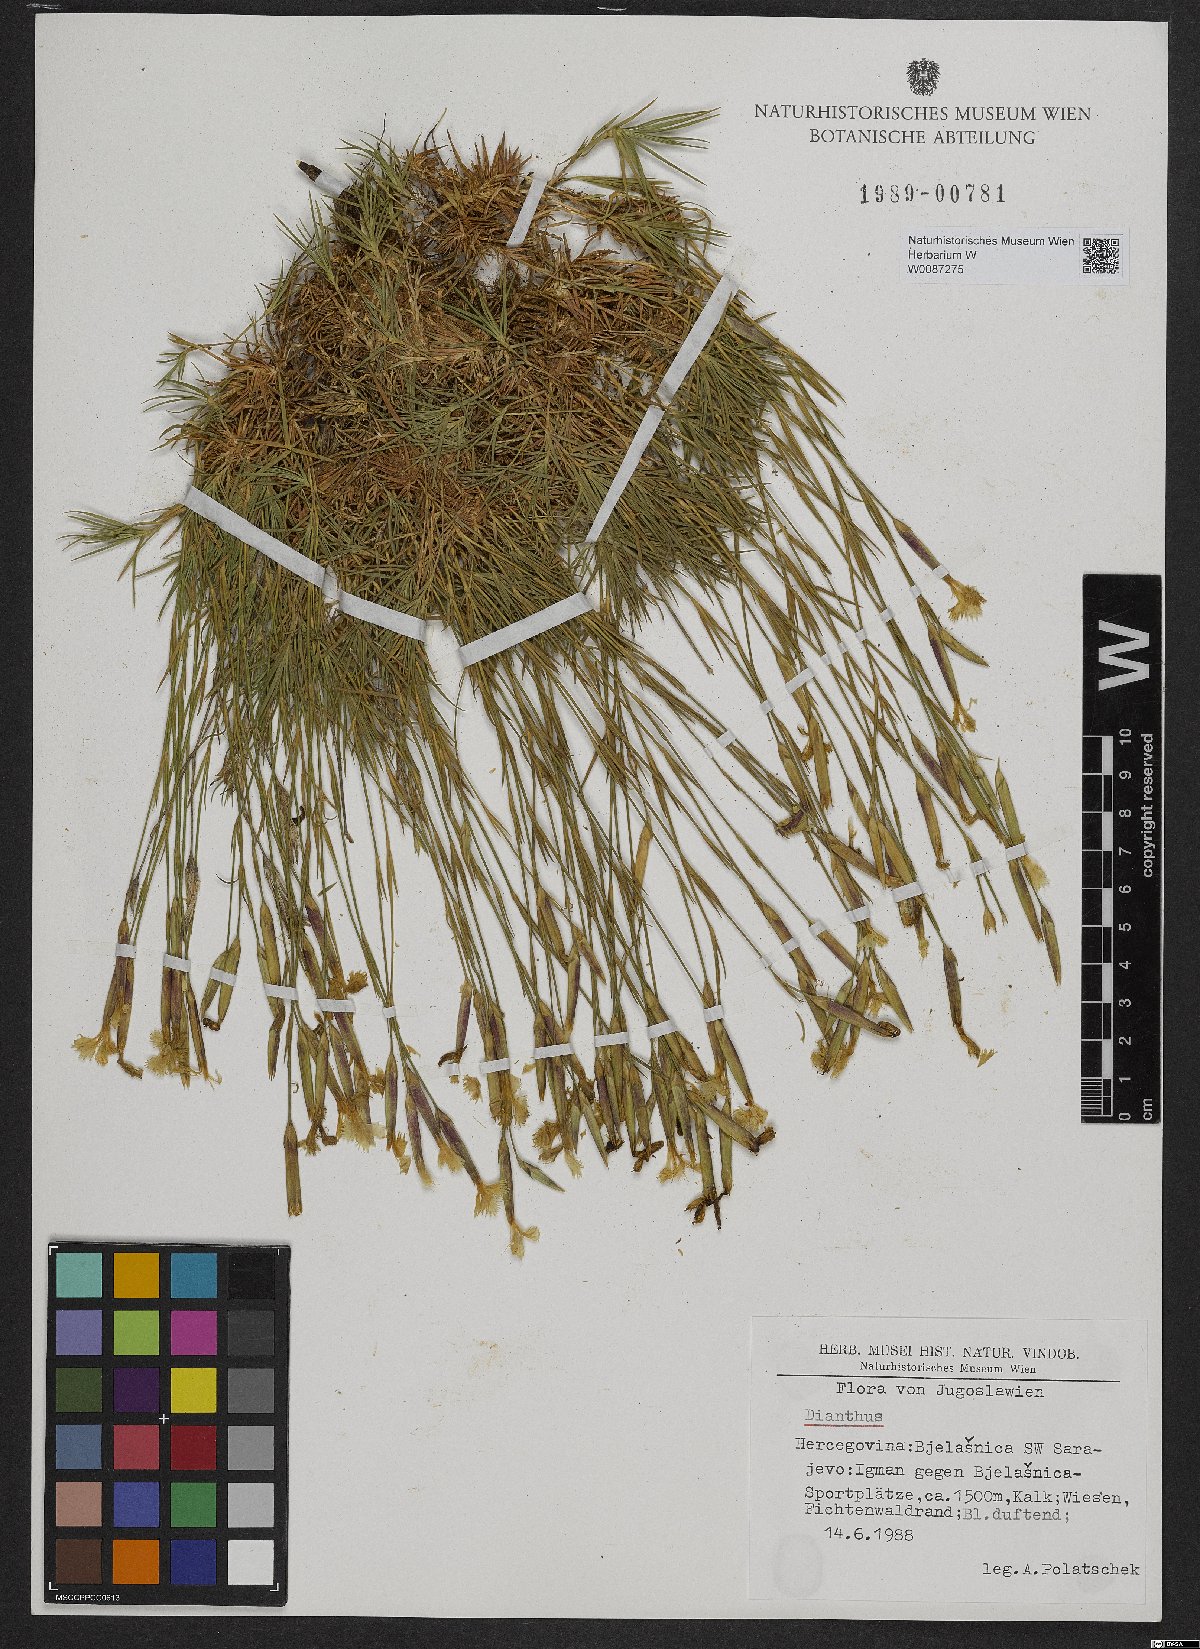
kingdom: Plantae
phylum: Tracheophyta
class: Magnoliopsida
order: Caryophyllales
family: Caryophyllaceae
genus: Dianthus
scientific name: Dianthus
